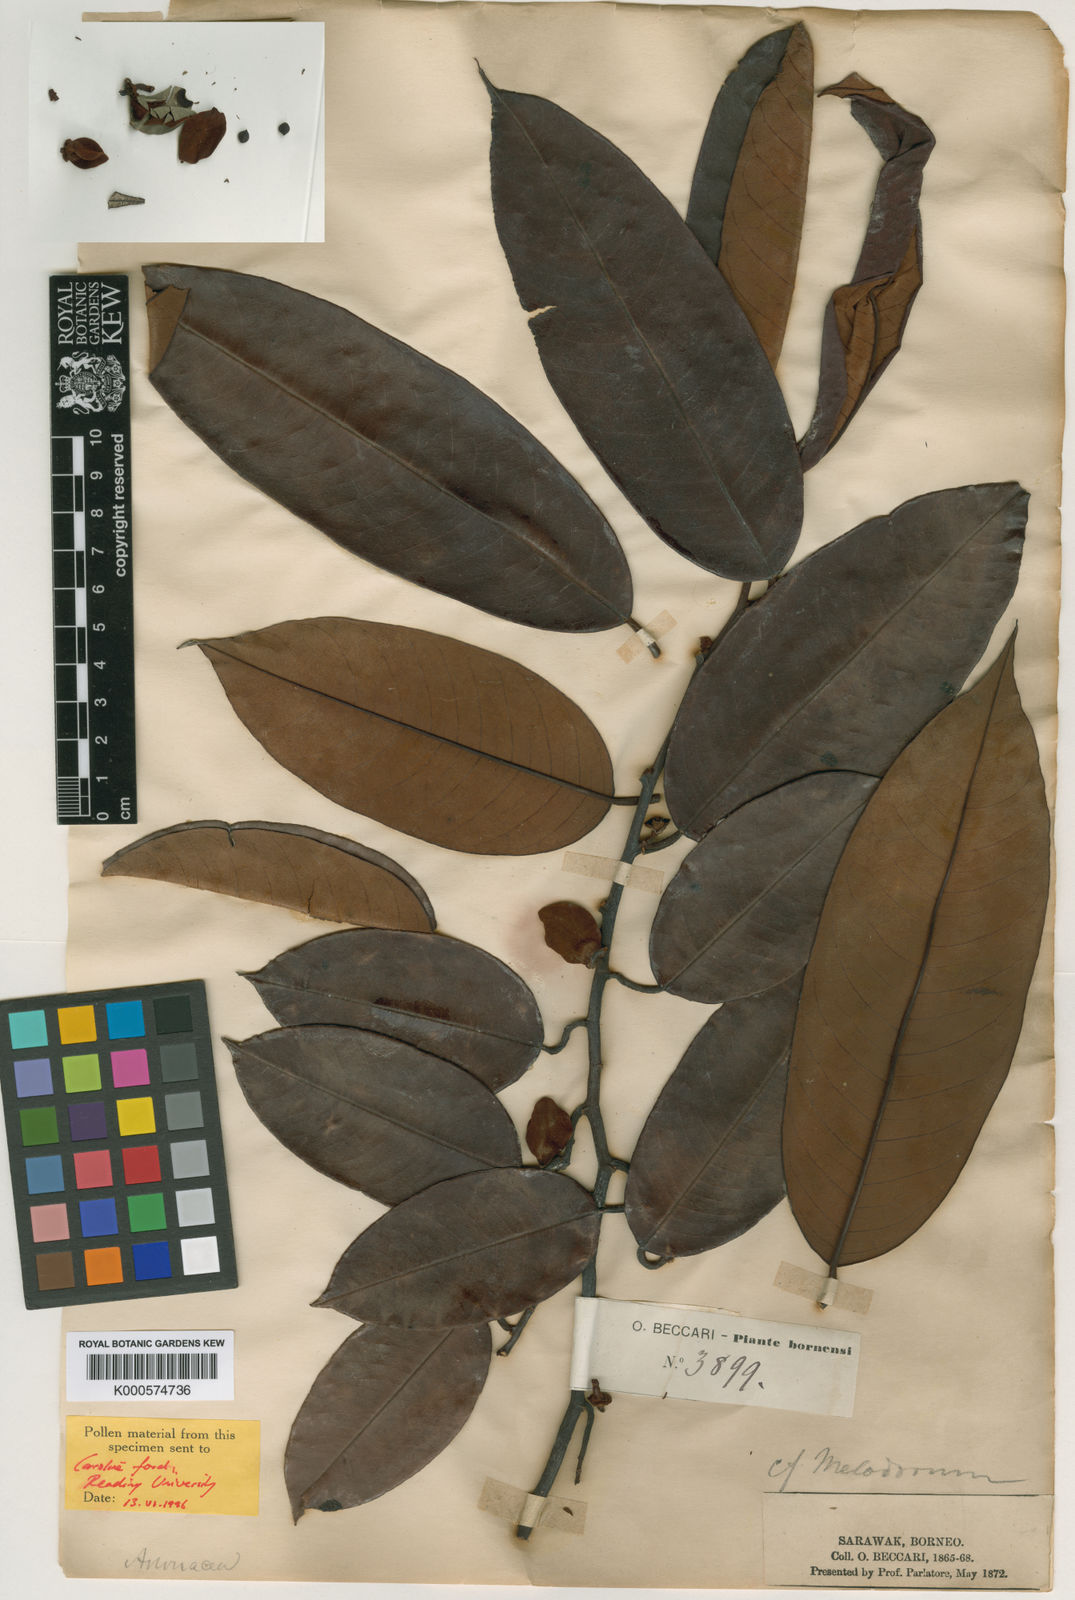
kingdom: Plantae
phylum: Tracheophyta
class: Magnoliopsida
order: Magnoliales
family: Annonaceae
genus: Mitrella
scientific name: Mitrella beccarii
